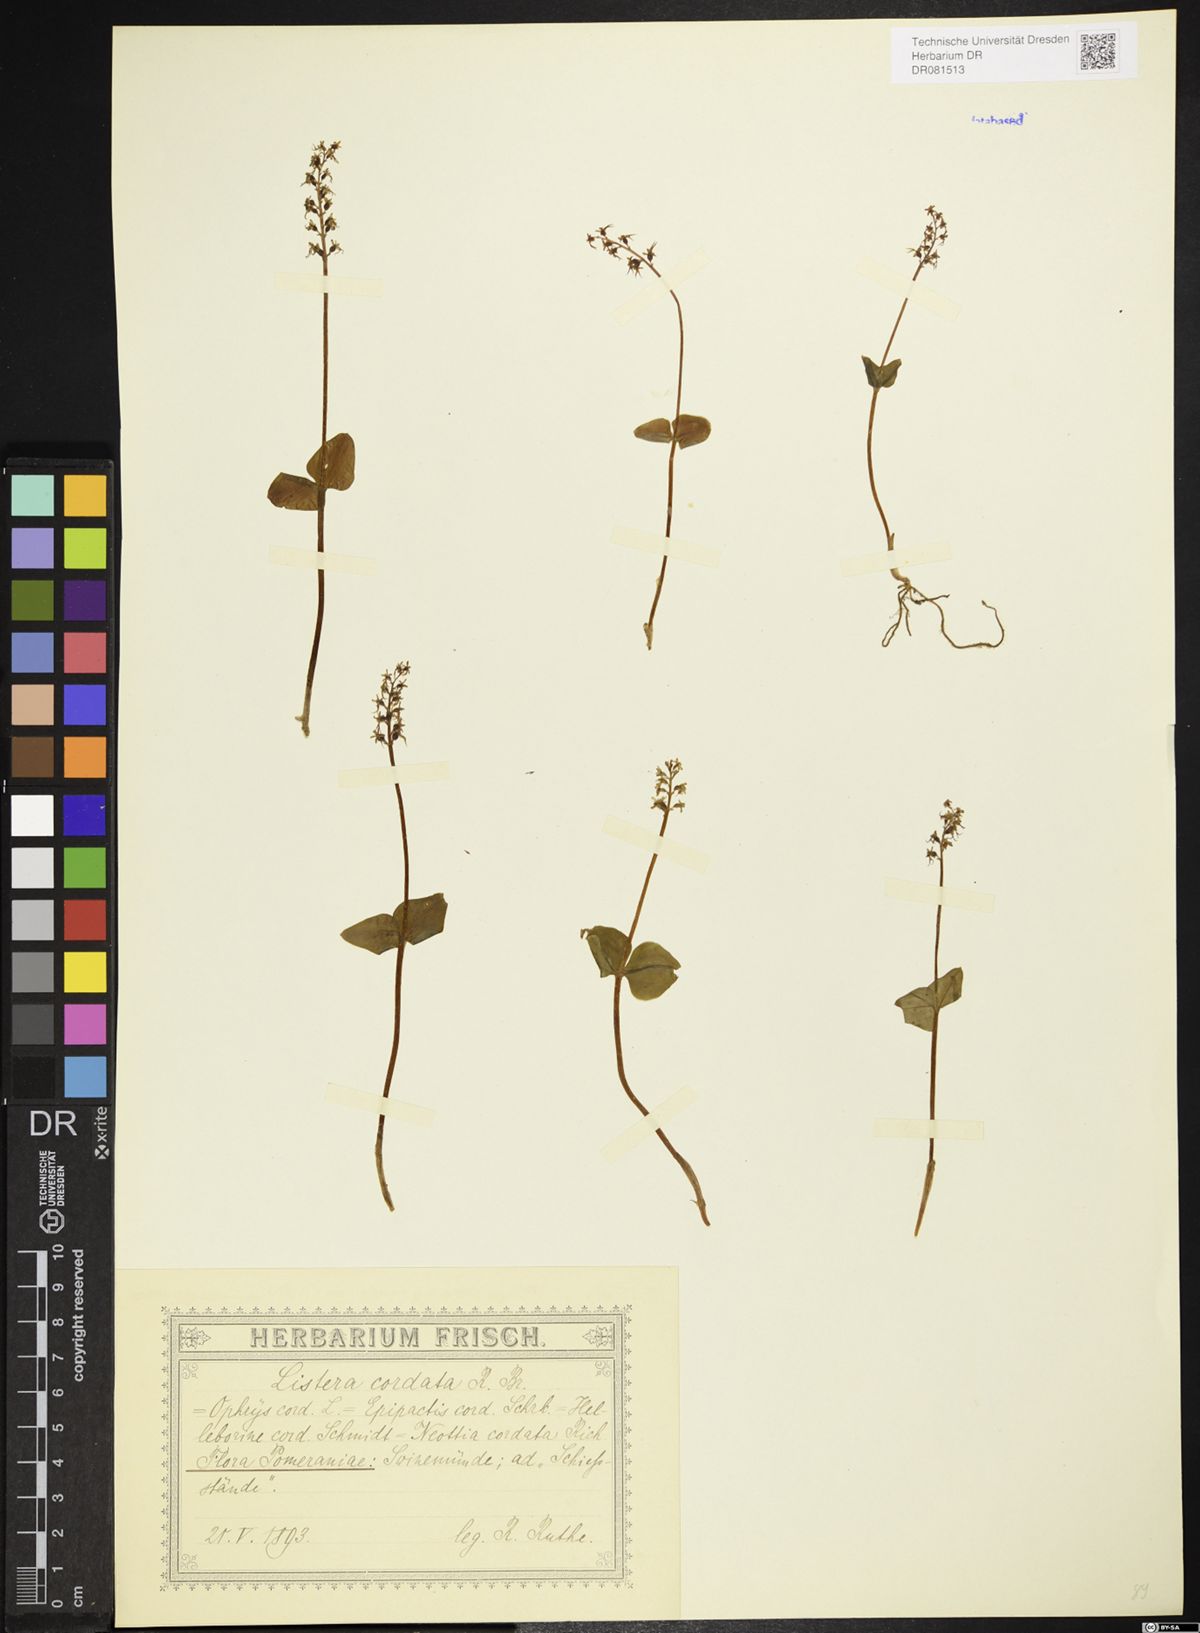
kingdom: Plantae
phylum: Tracheophyta
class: Liliopsida
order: Asparagales
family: Orchidaceae
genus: Neottia
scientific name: Neottia cordata
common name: Lesser twayblade
